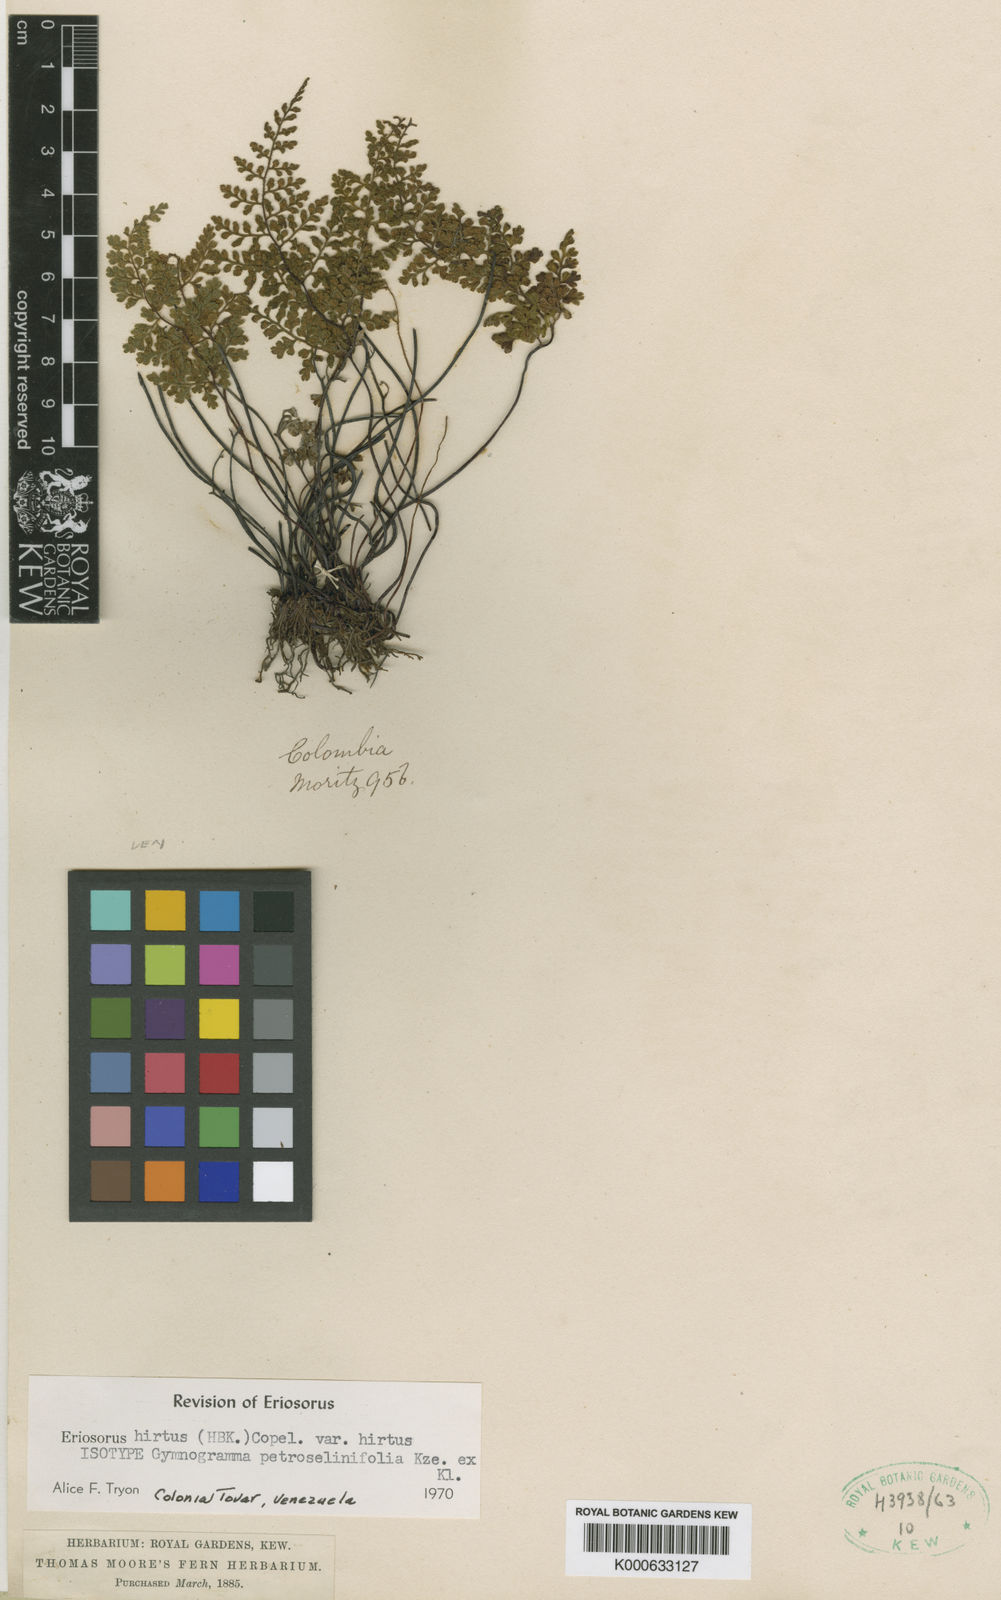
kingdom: Plantae
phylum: Tracheophyta
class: Polypodiopsida
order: Polypodiales
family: Pteridaceae
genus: Jamesonia
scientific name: Jamesonia hirta
